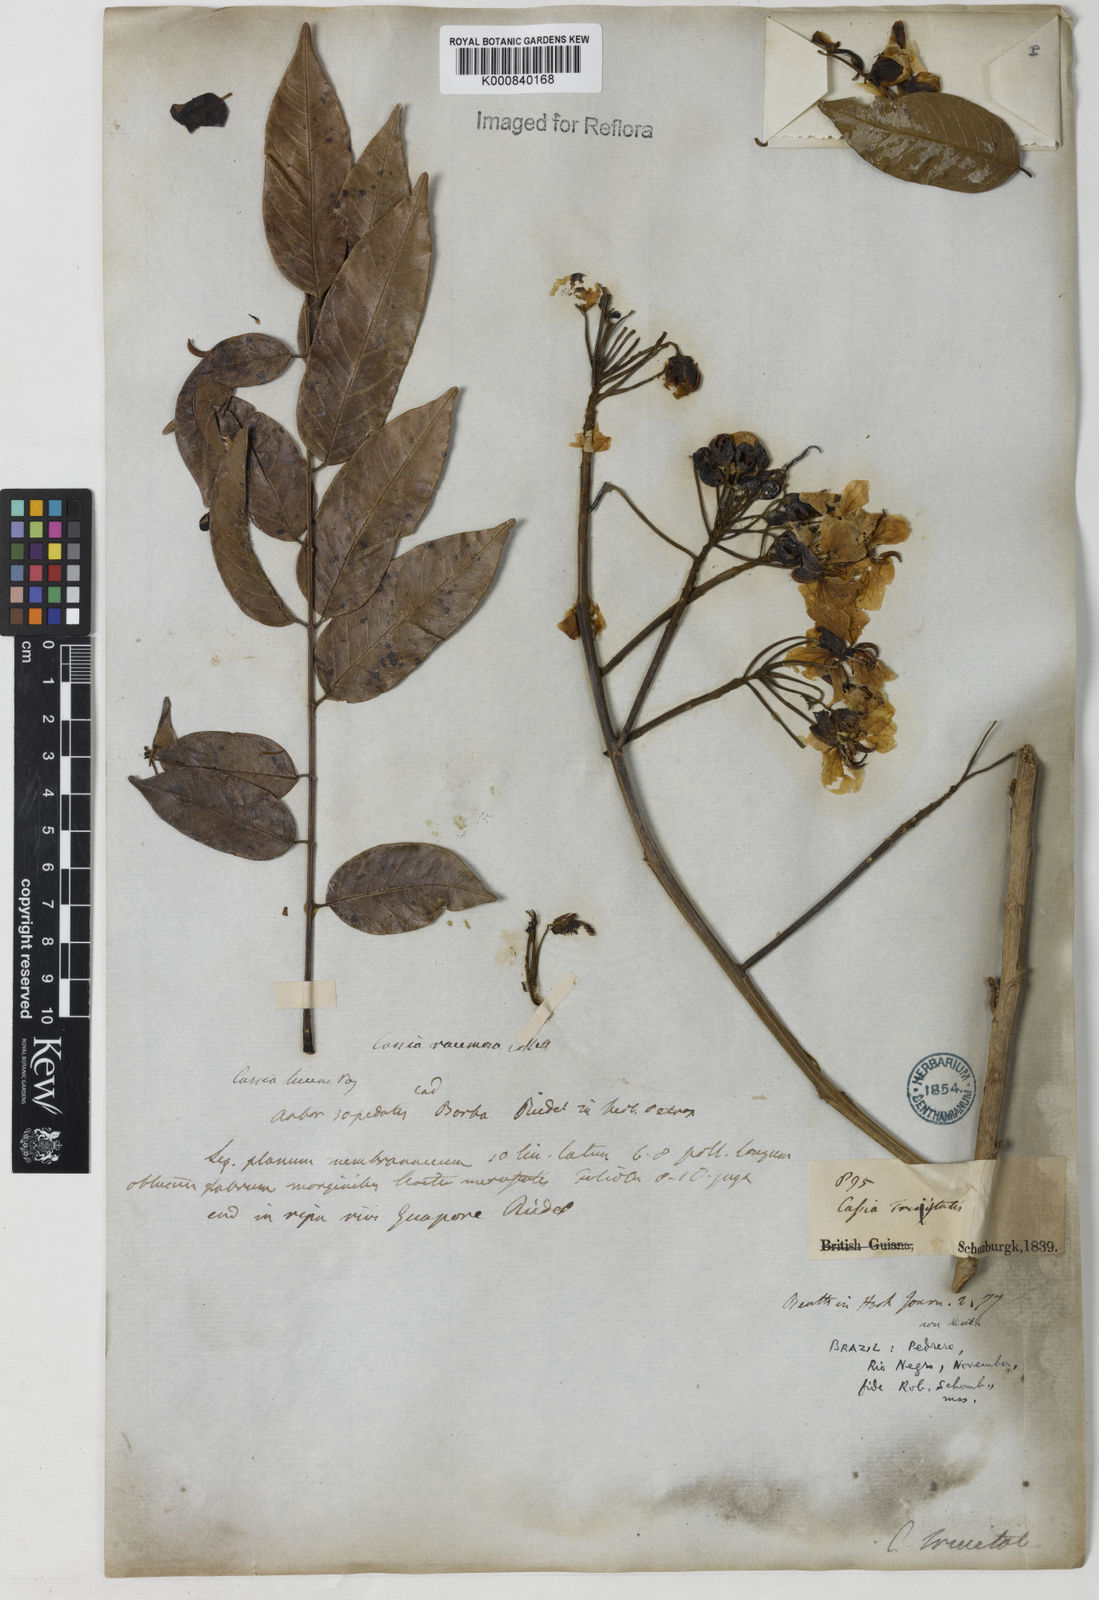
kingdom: Plantae
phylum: Tracheophyta
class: Magnoliopsida
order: Fabales
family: Fabaceae
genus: Senna
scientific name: Senna silvestris
